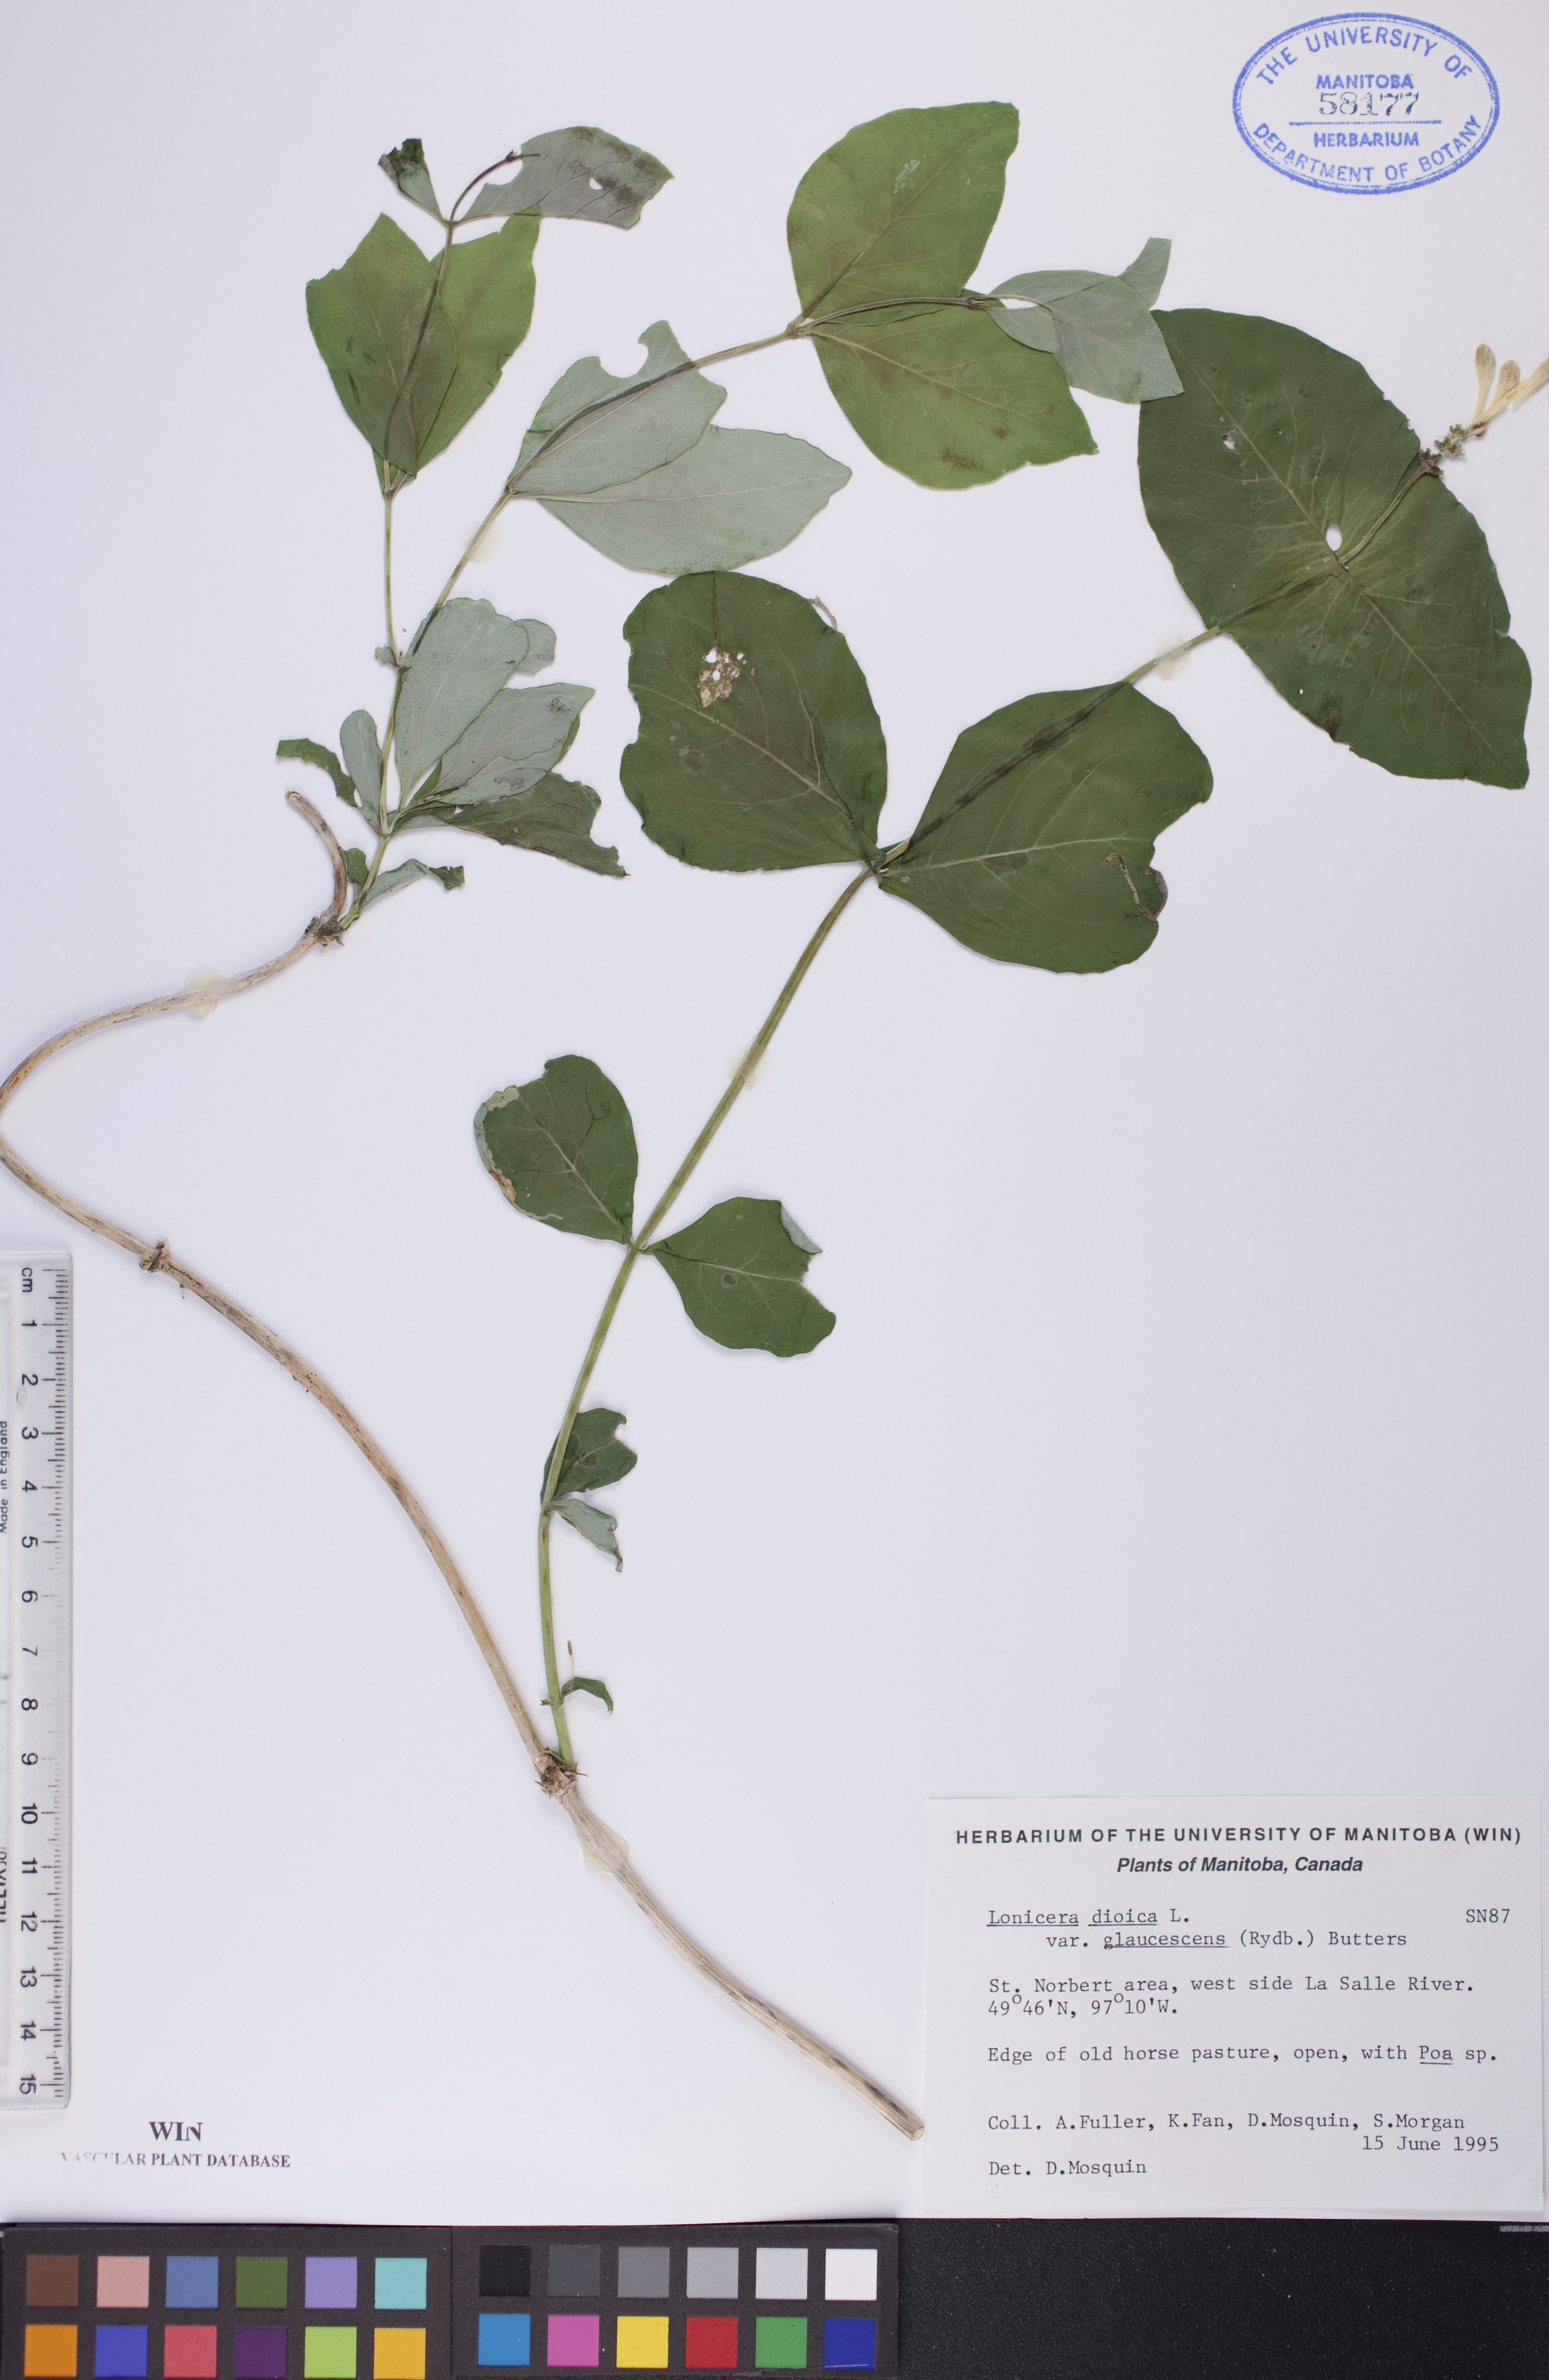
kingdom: Plantae
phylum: Tracheophyta
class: Magnoliopsida
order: Dipsacales
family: Caprifoliaceae
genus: Lonicera
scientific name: Lonicera dioica
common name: Limber honeysuckle
